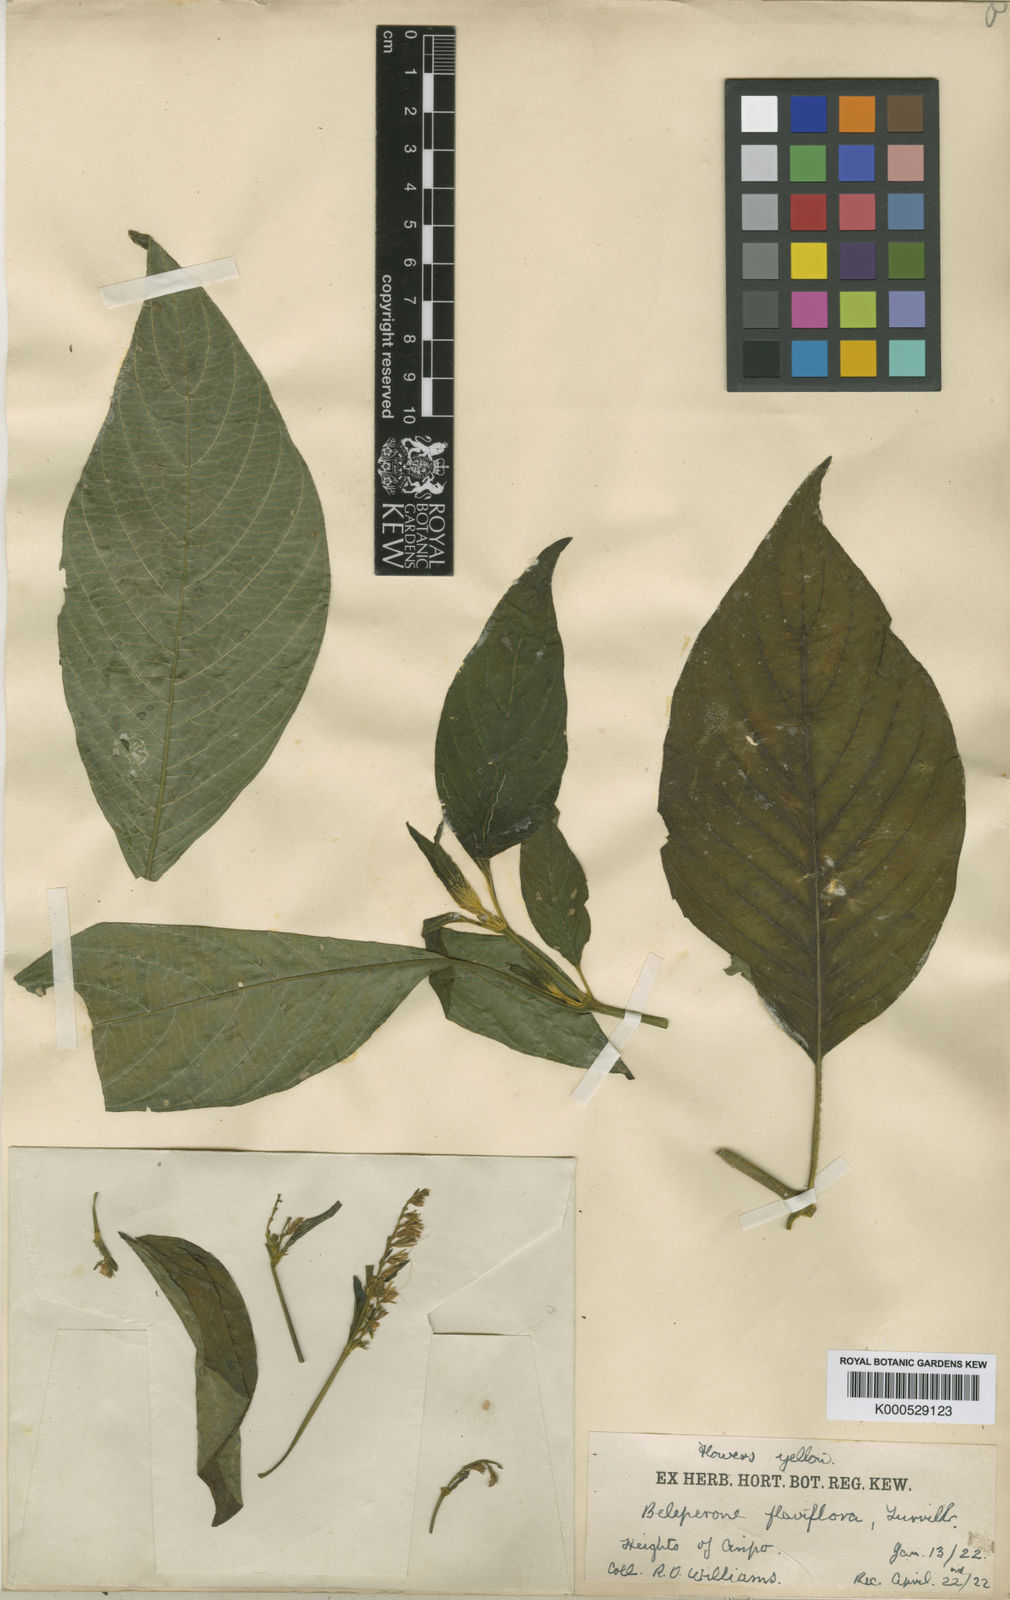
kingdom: Plantae
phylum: Tracheophyta
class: Magnoliopsida
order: Lamiales
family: Acanthaceae
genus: Justicia
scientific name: Justicia flaviflora
